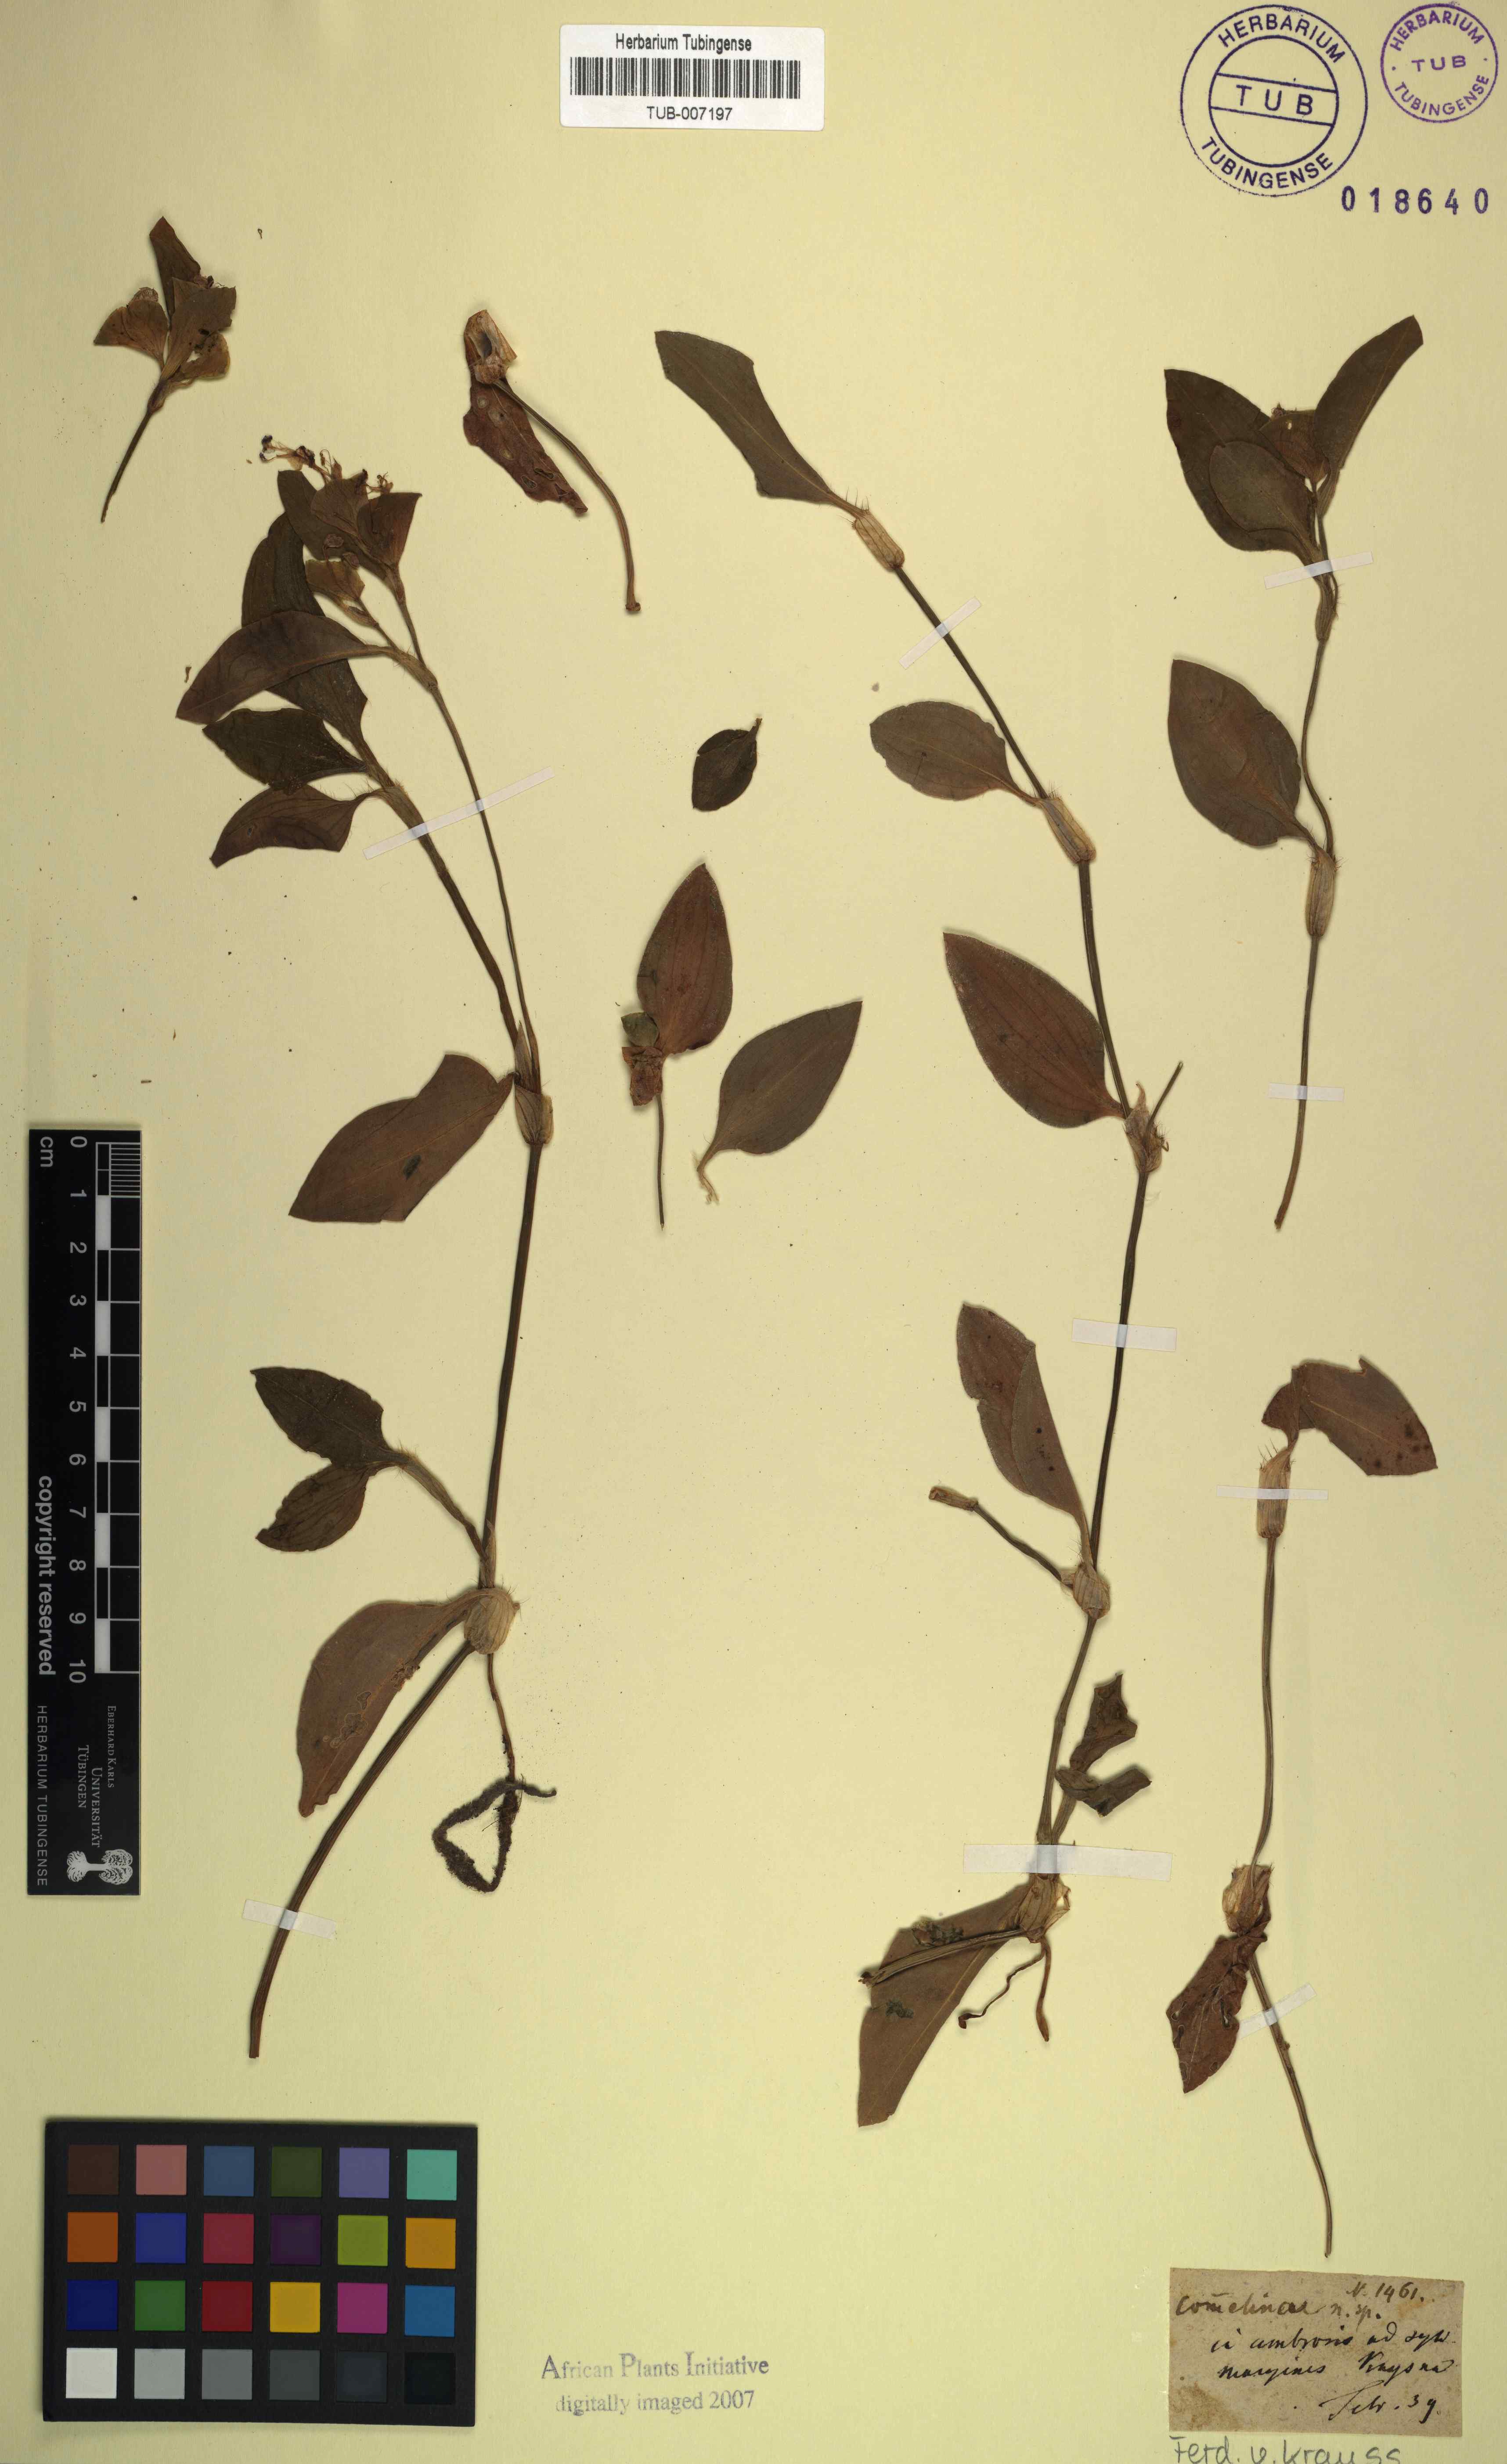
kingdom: Plantae
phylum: Tracheophyta
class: Liliopsida
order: Commelinales
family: Commelinaceae
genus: Commelina
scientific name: Commelina
